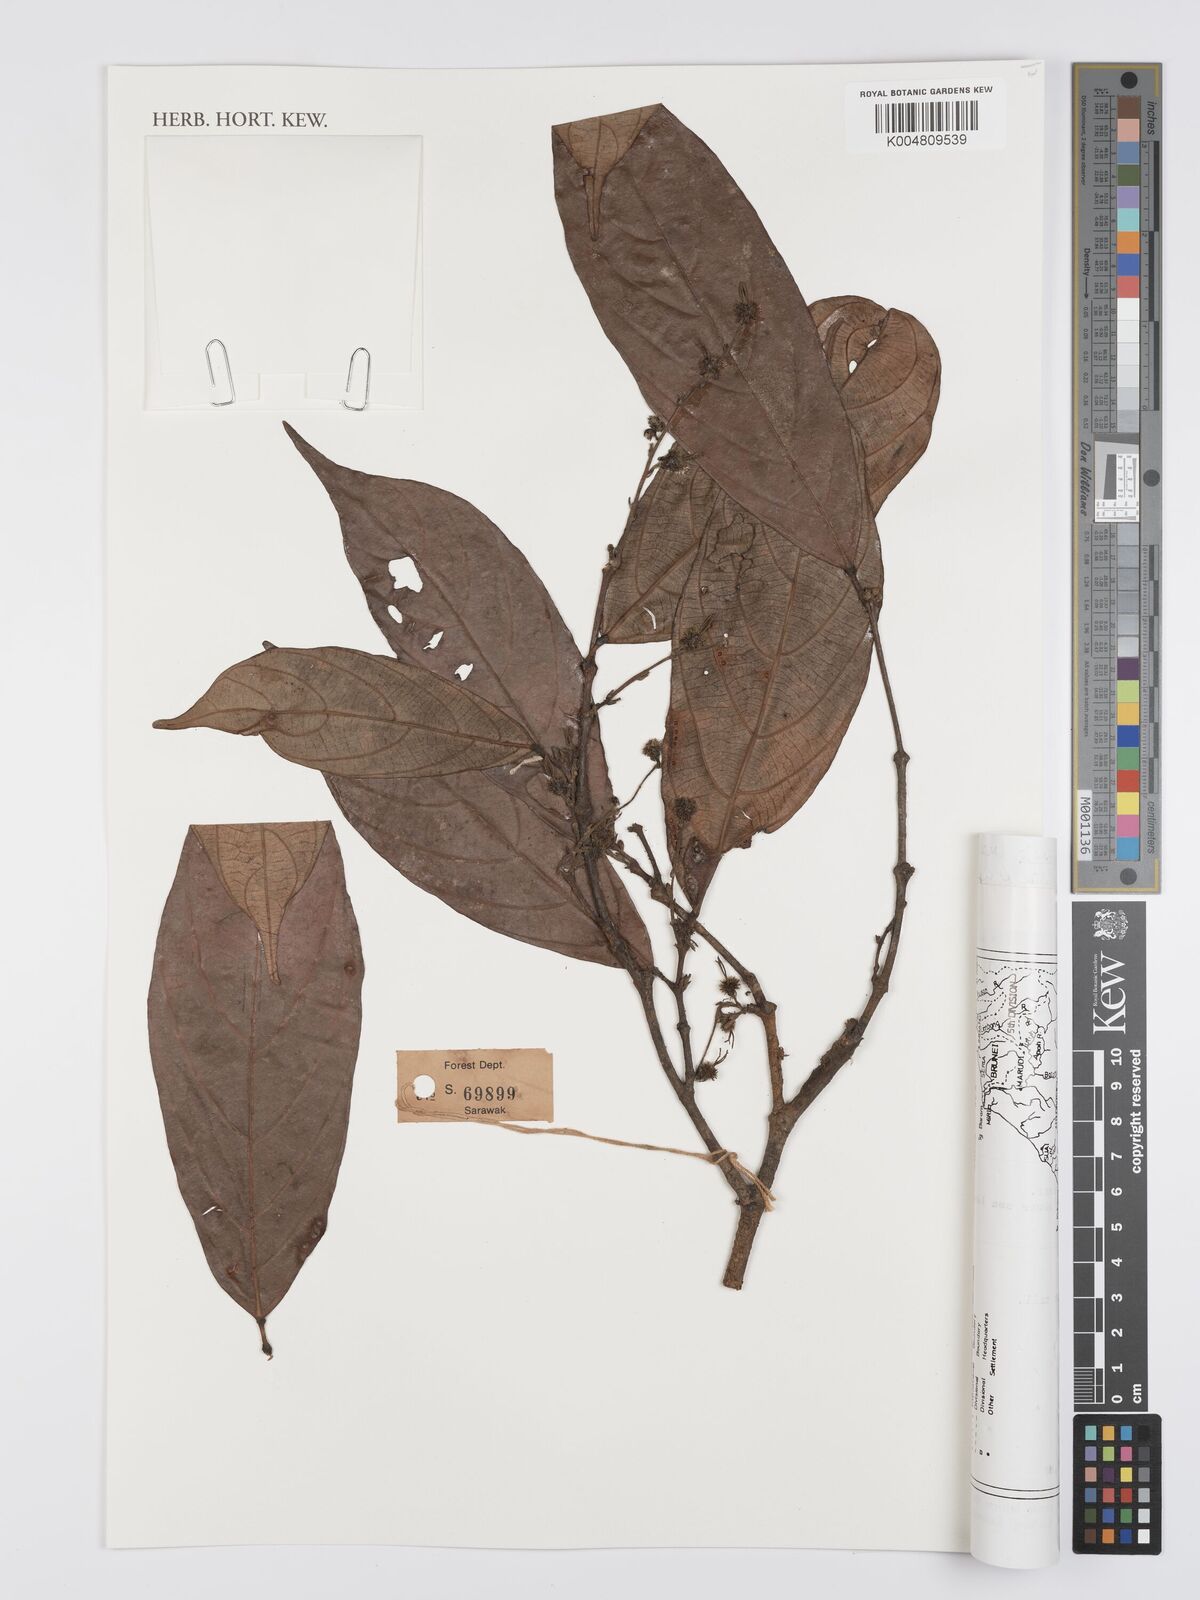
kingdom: Plantae
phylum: Tracheophyta
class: Magnoliopsida
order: Malpighiales
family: Euphorbiaceae
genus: Hancea
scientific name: Hancea penangensis
